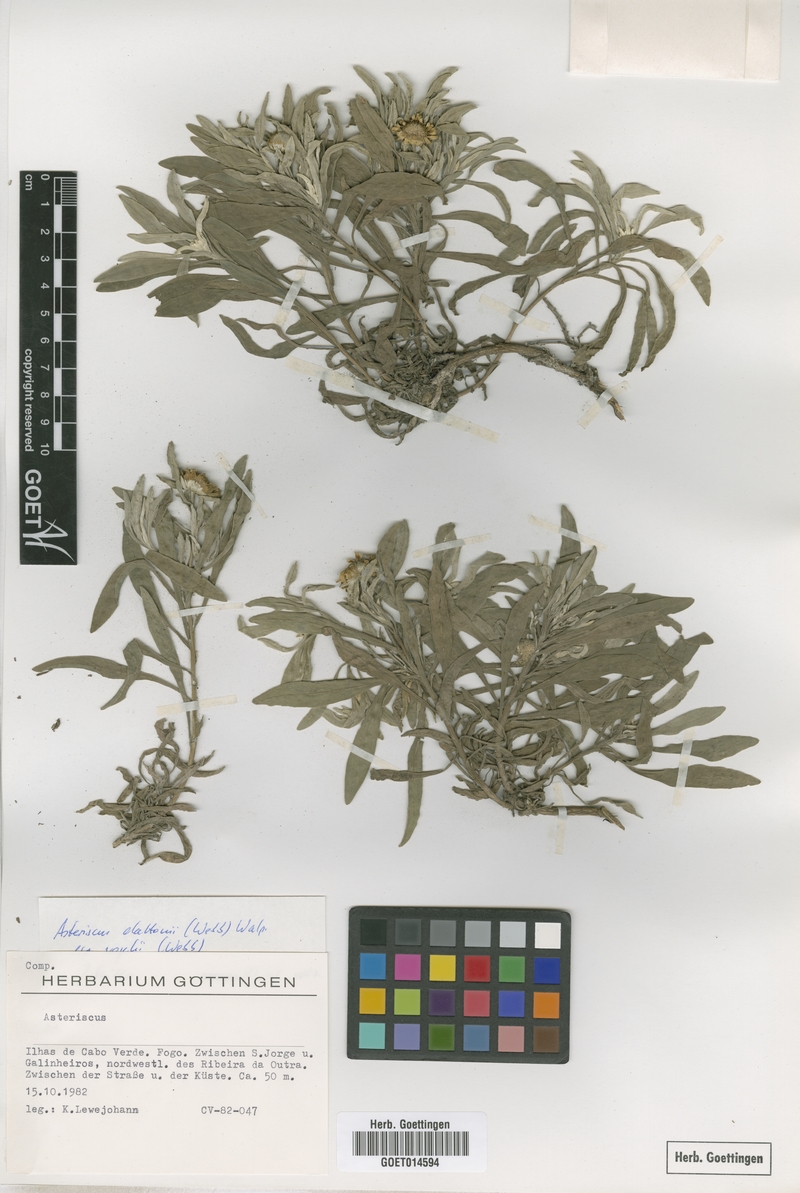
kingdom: Plantae
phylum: Tracheophyta
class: Magnoliopsida
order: Asterales
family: Asteraceae
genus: Asteriscus
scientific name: Asteriscus daltonii
